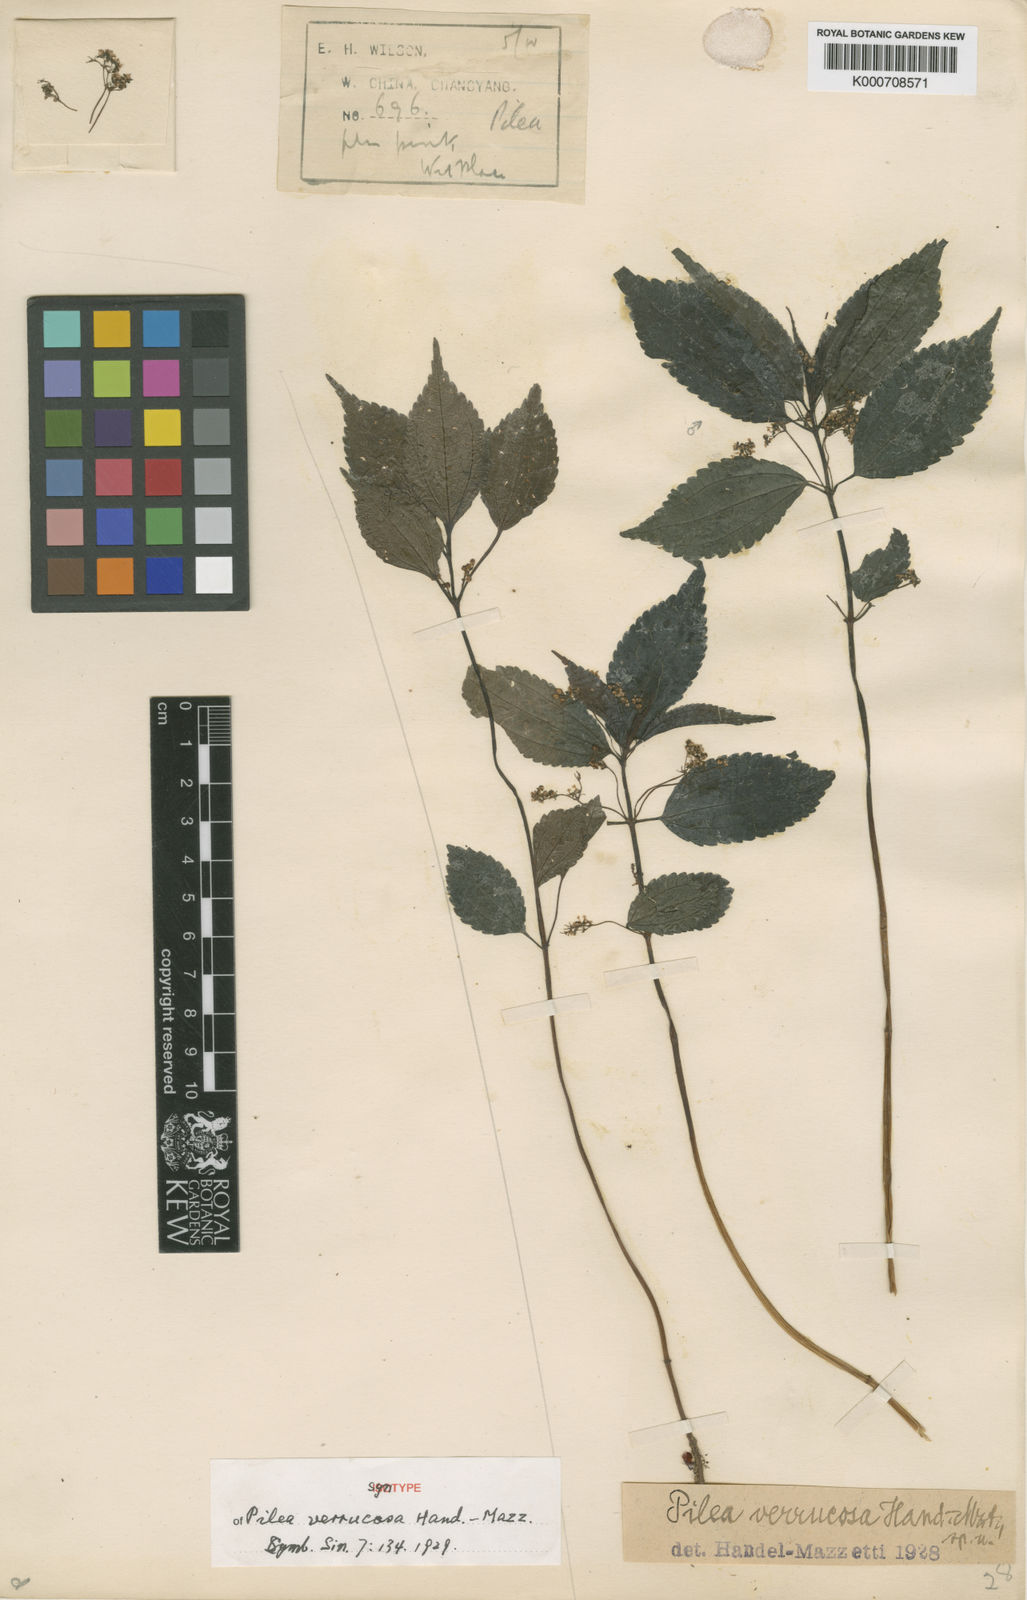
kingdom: Plantae
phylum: Tracheophyta
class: Magnoliopsida
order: Rosales
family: Urticaceae
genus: Pilea
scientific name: Pilea gracilis
